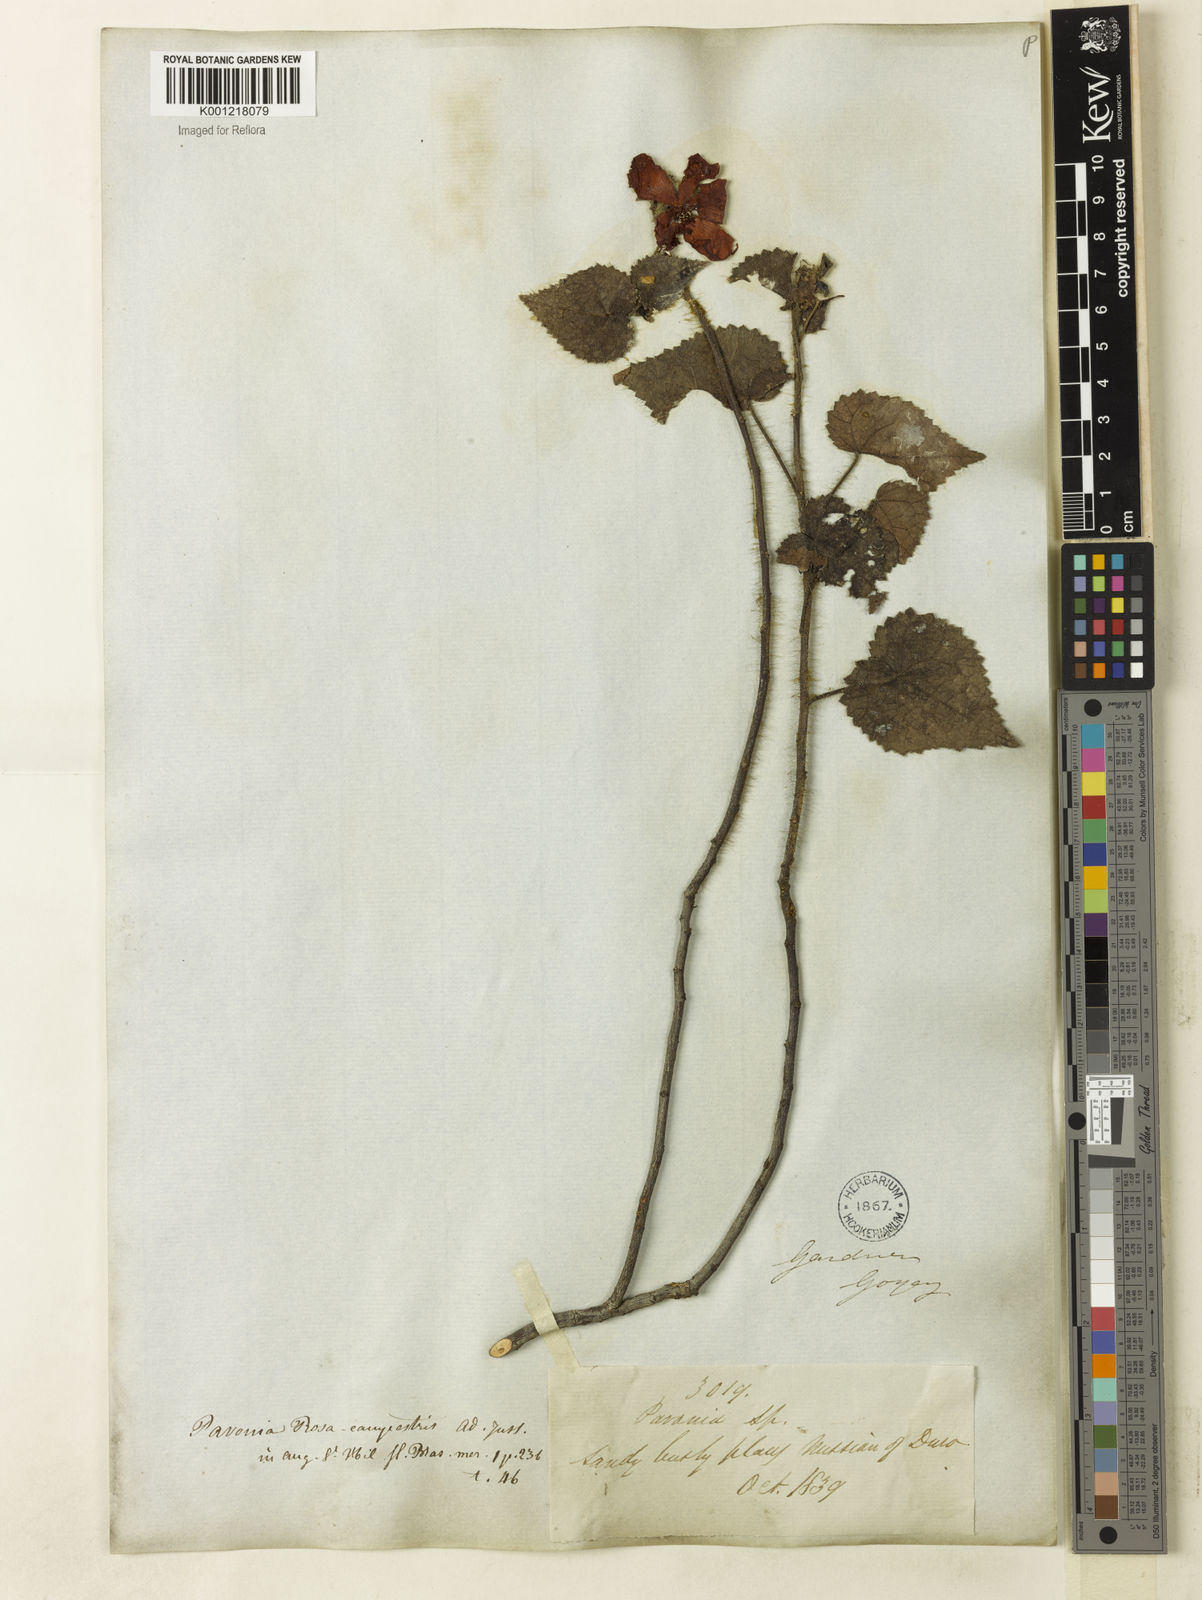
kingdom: Plantae
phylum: Tracheophyta
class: Magnoliopsida
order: Malvales
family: Malvaceae
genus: Pavonia
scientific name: Pavonia rosa-campestris
